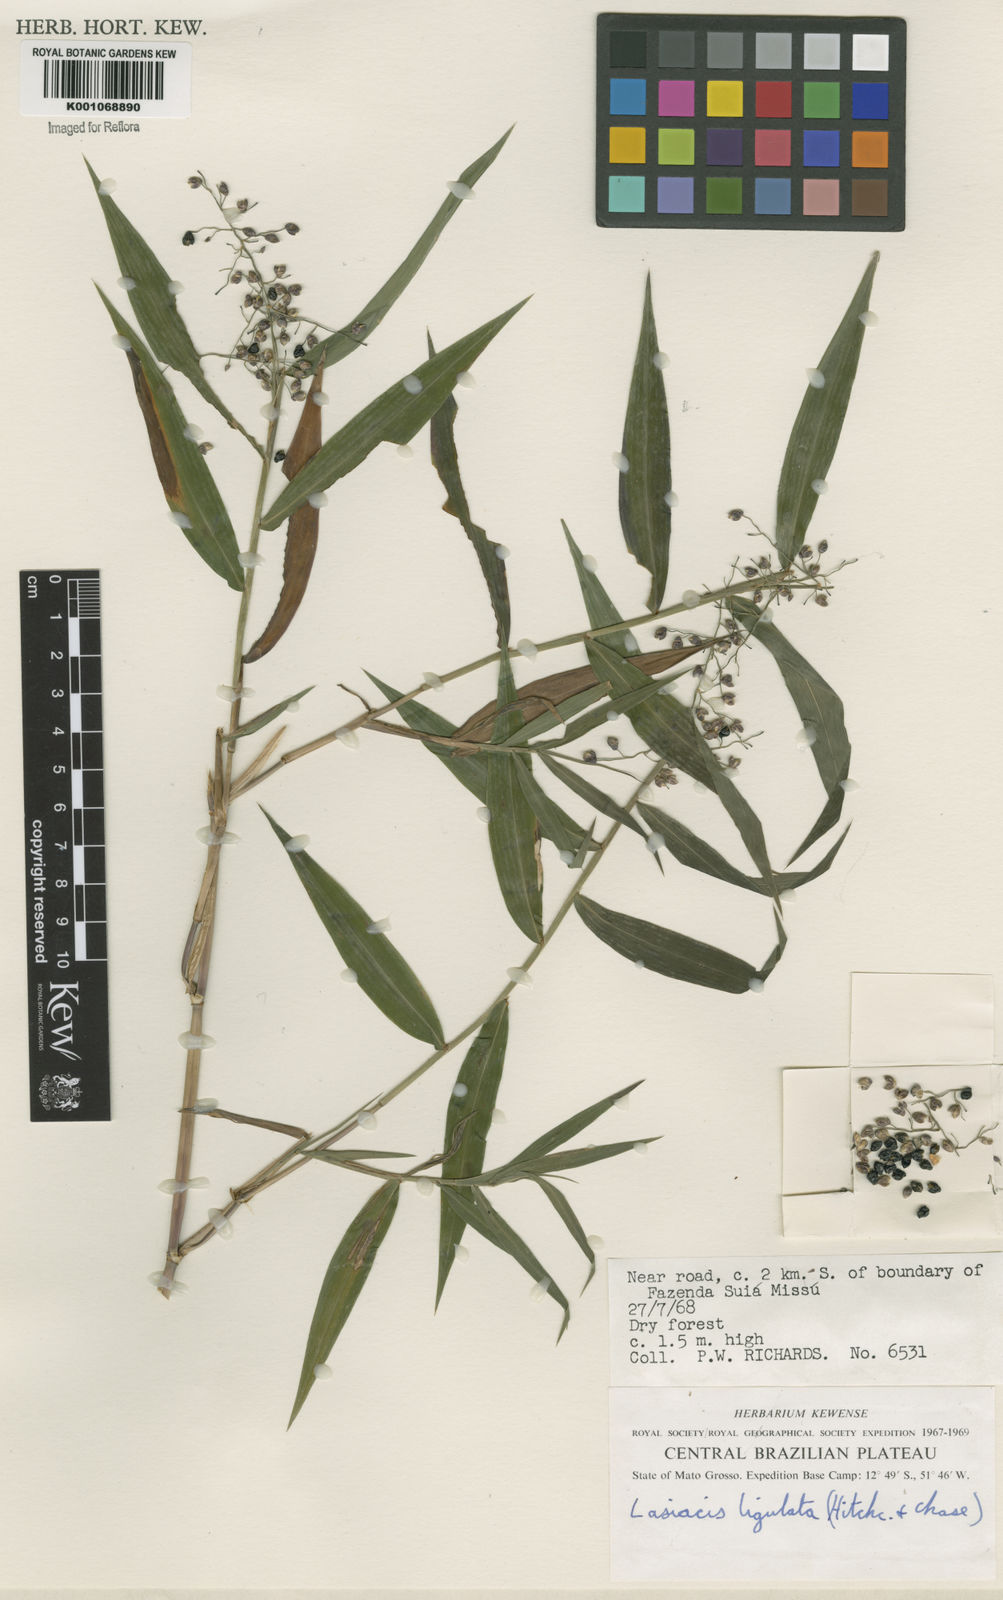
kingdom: Plantae
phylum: Tracheophyta
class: Liliopsida
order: Poales
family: Poaceae
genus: Lasiacis
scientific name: Lasiacis ligulata
